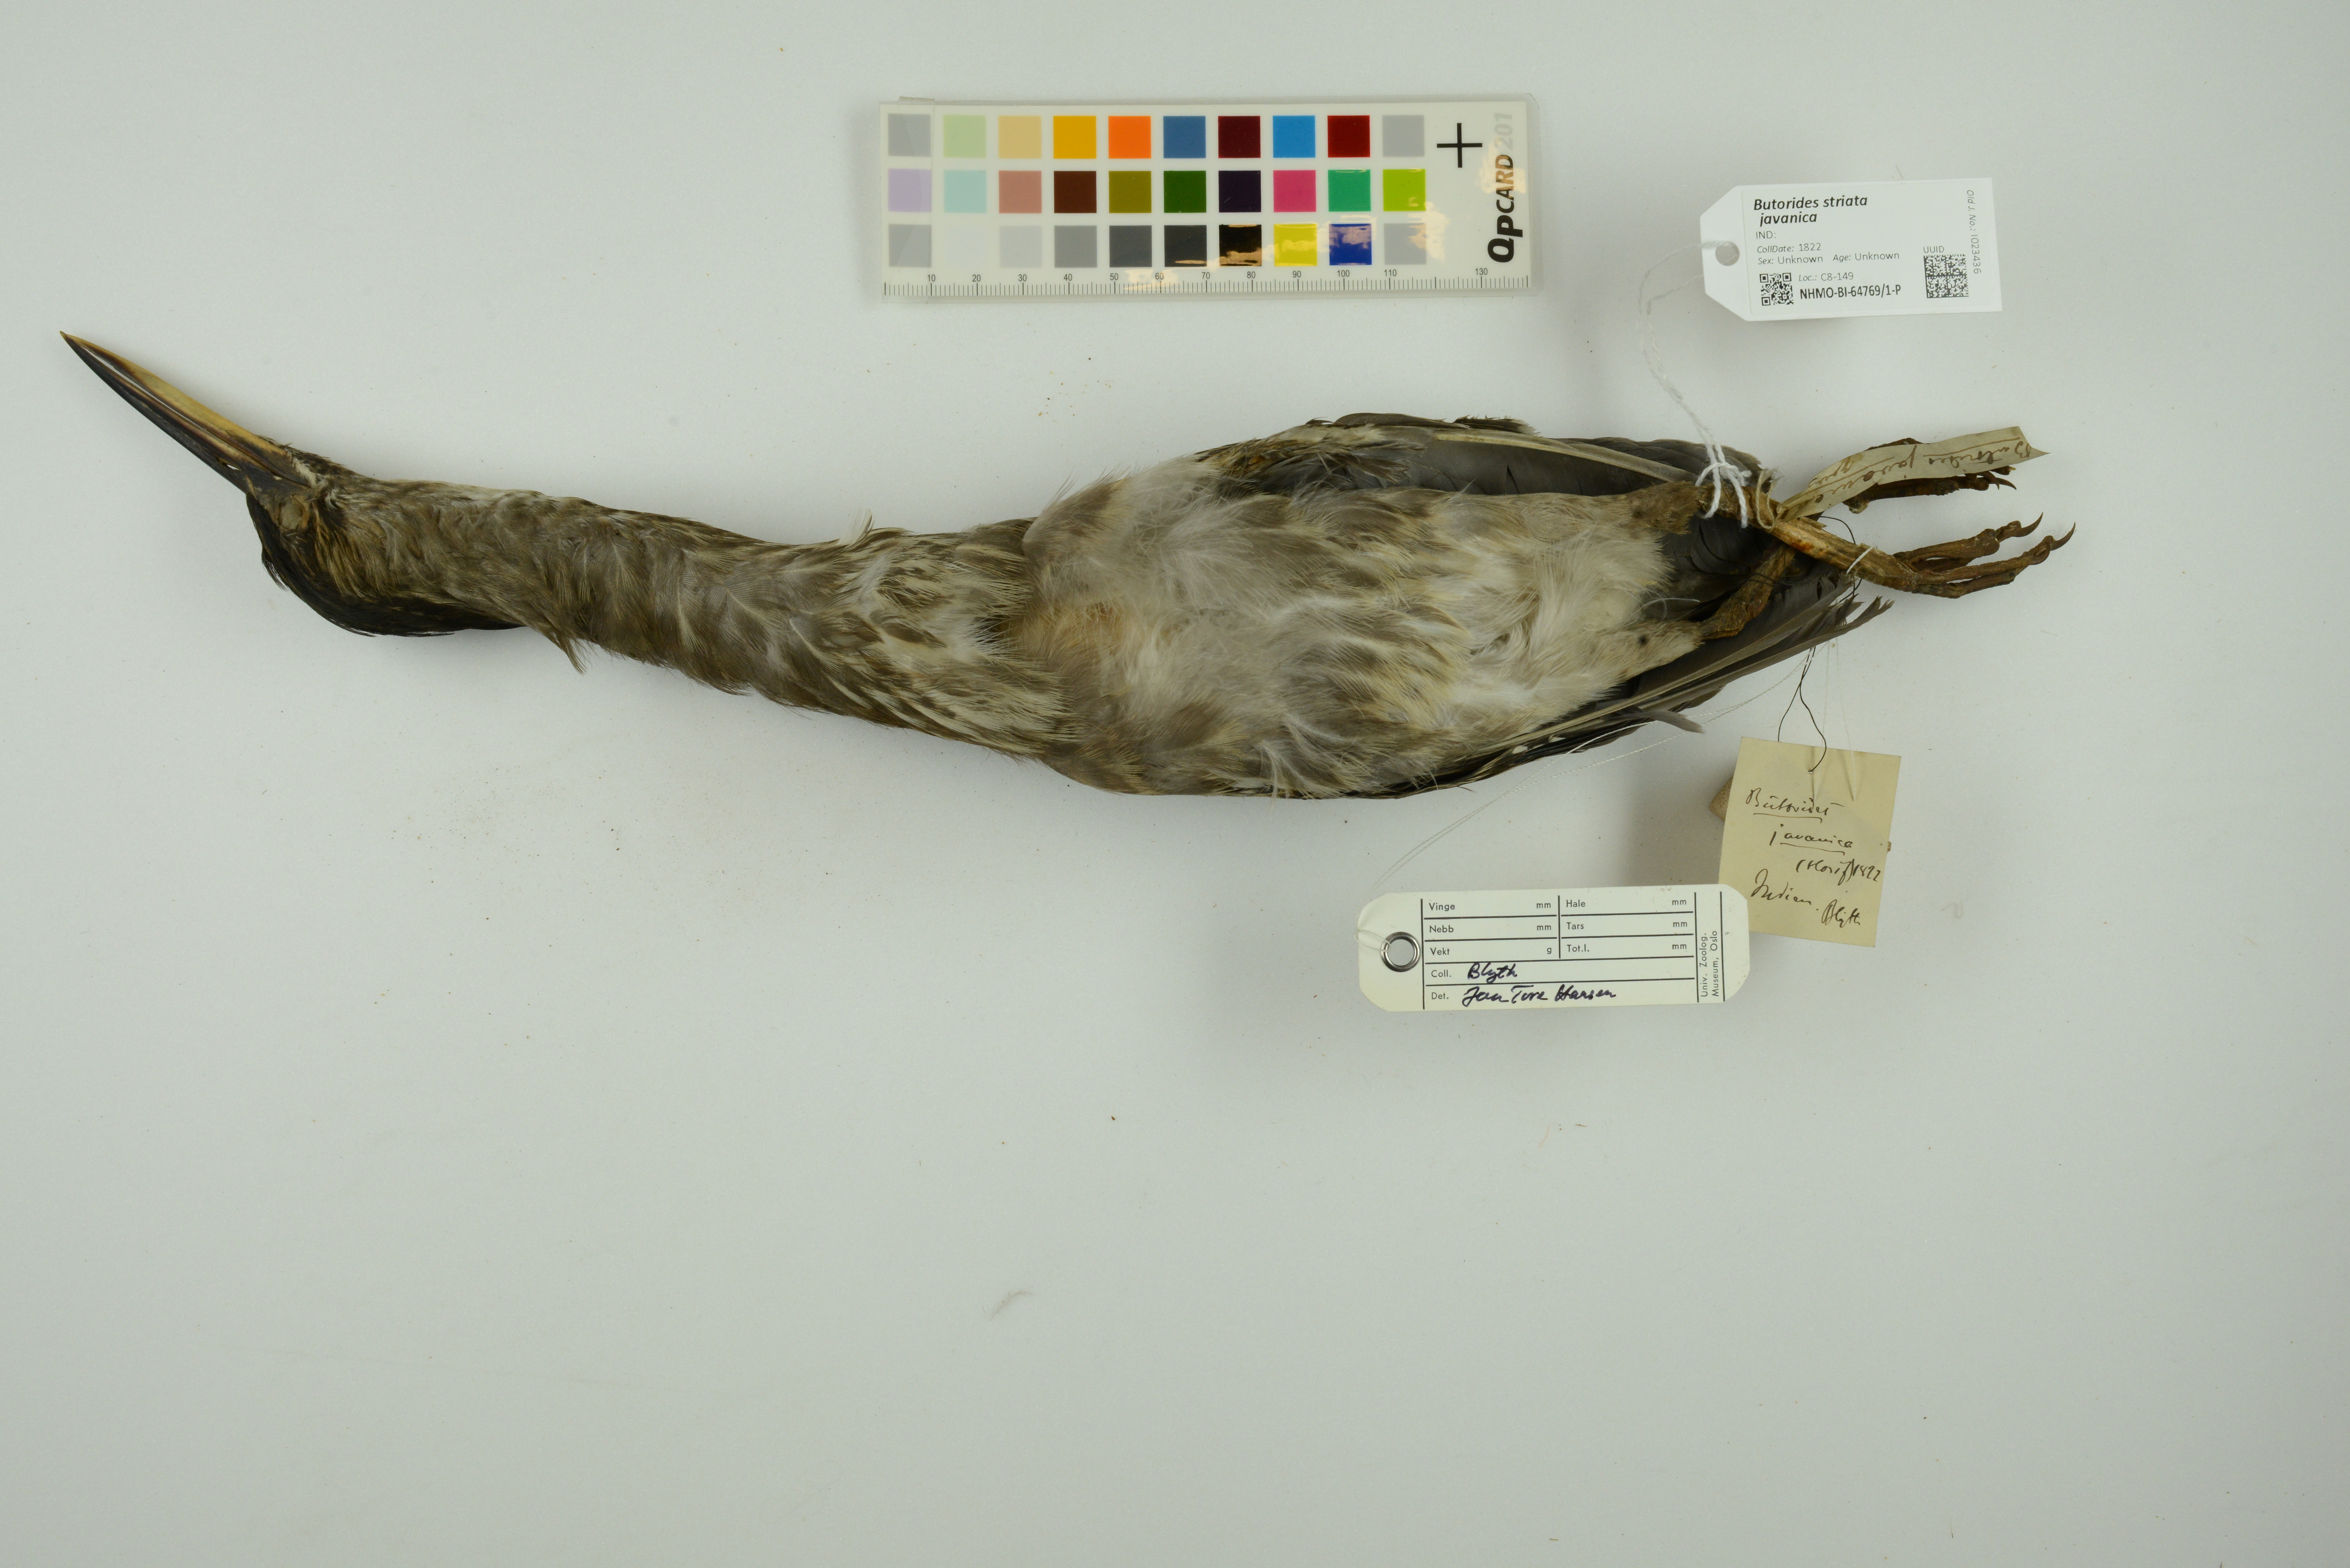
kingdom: Animalia
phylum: Chordata
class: Aves
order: Pelecaniformes
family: Ardeidae
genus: Butorides
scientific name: Butorides striata
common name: Striated heron
